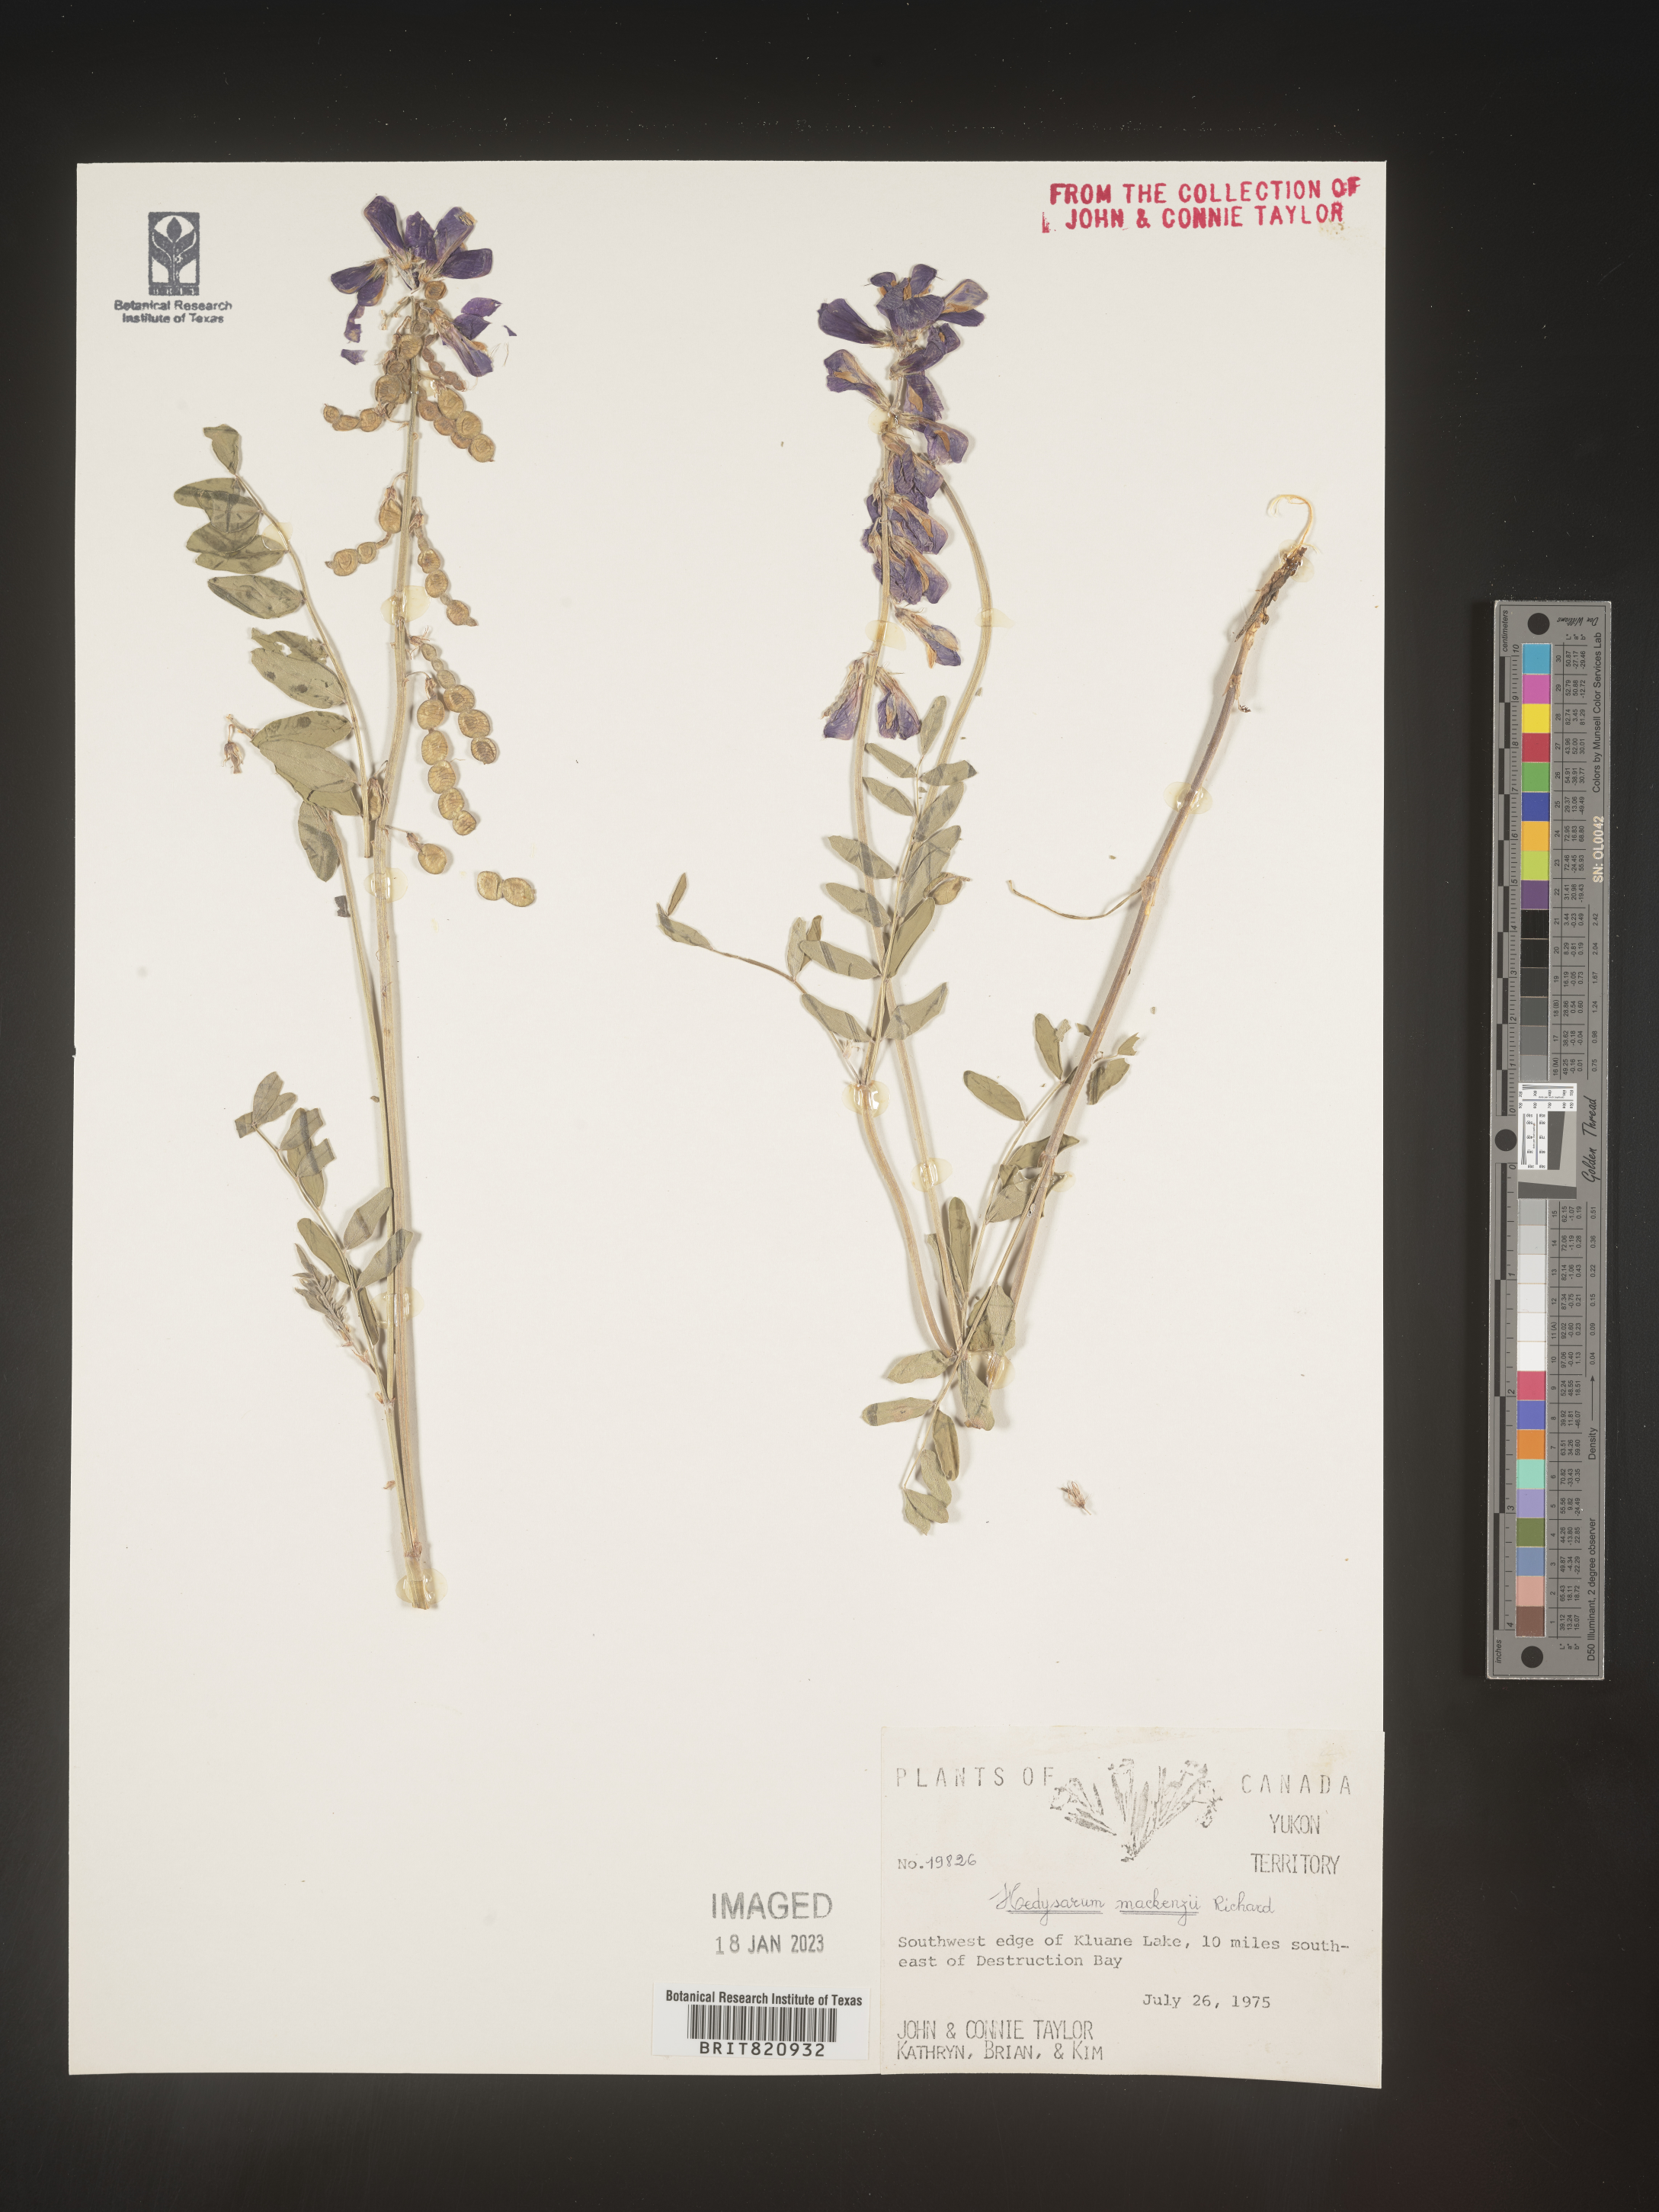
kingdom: Plantae
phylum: Tracheophyta
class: Magnoliopsida
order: Fabales
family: Fabaceae
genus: Hedysarum
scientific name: Hedysarum boreale
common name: Northern sweet-vetch
